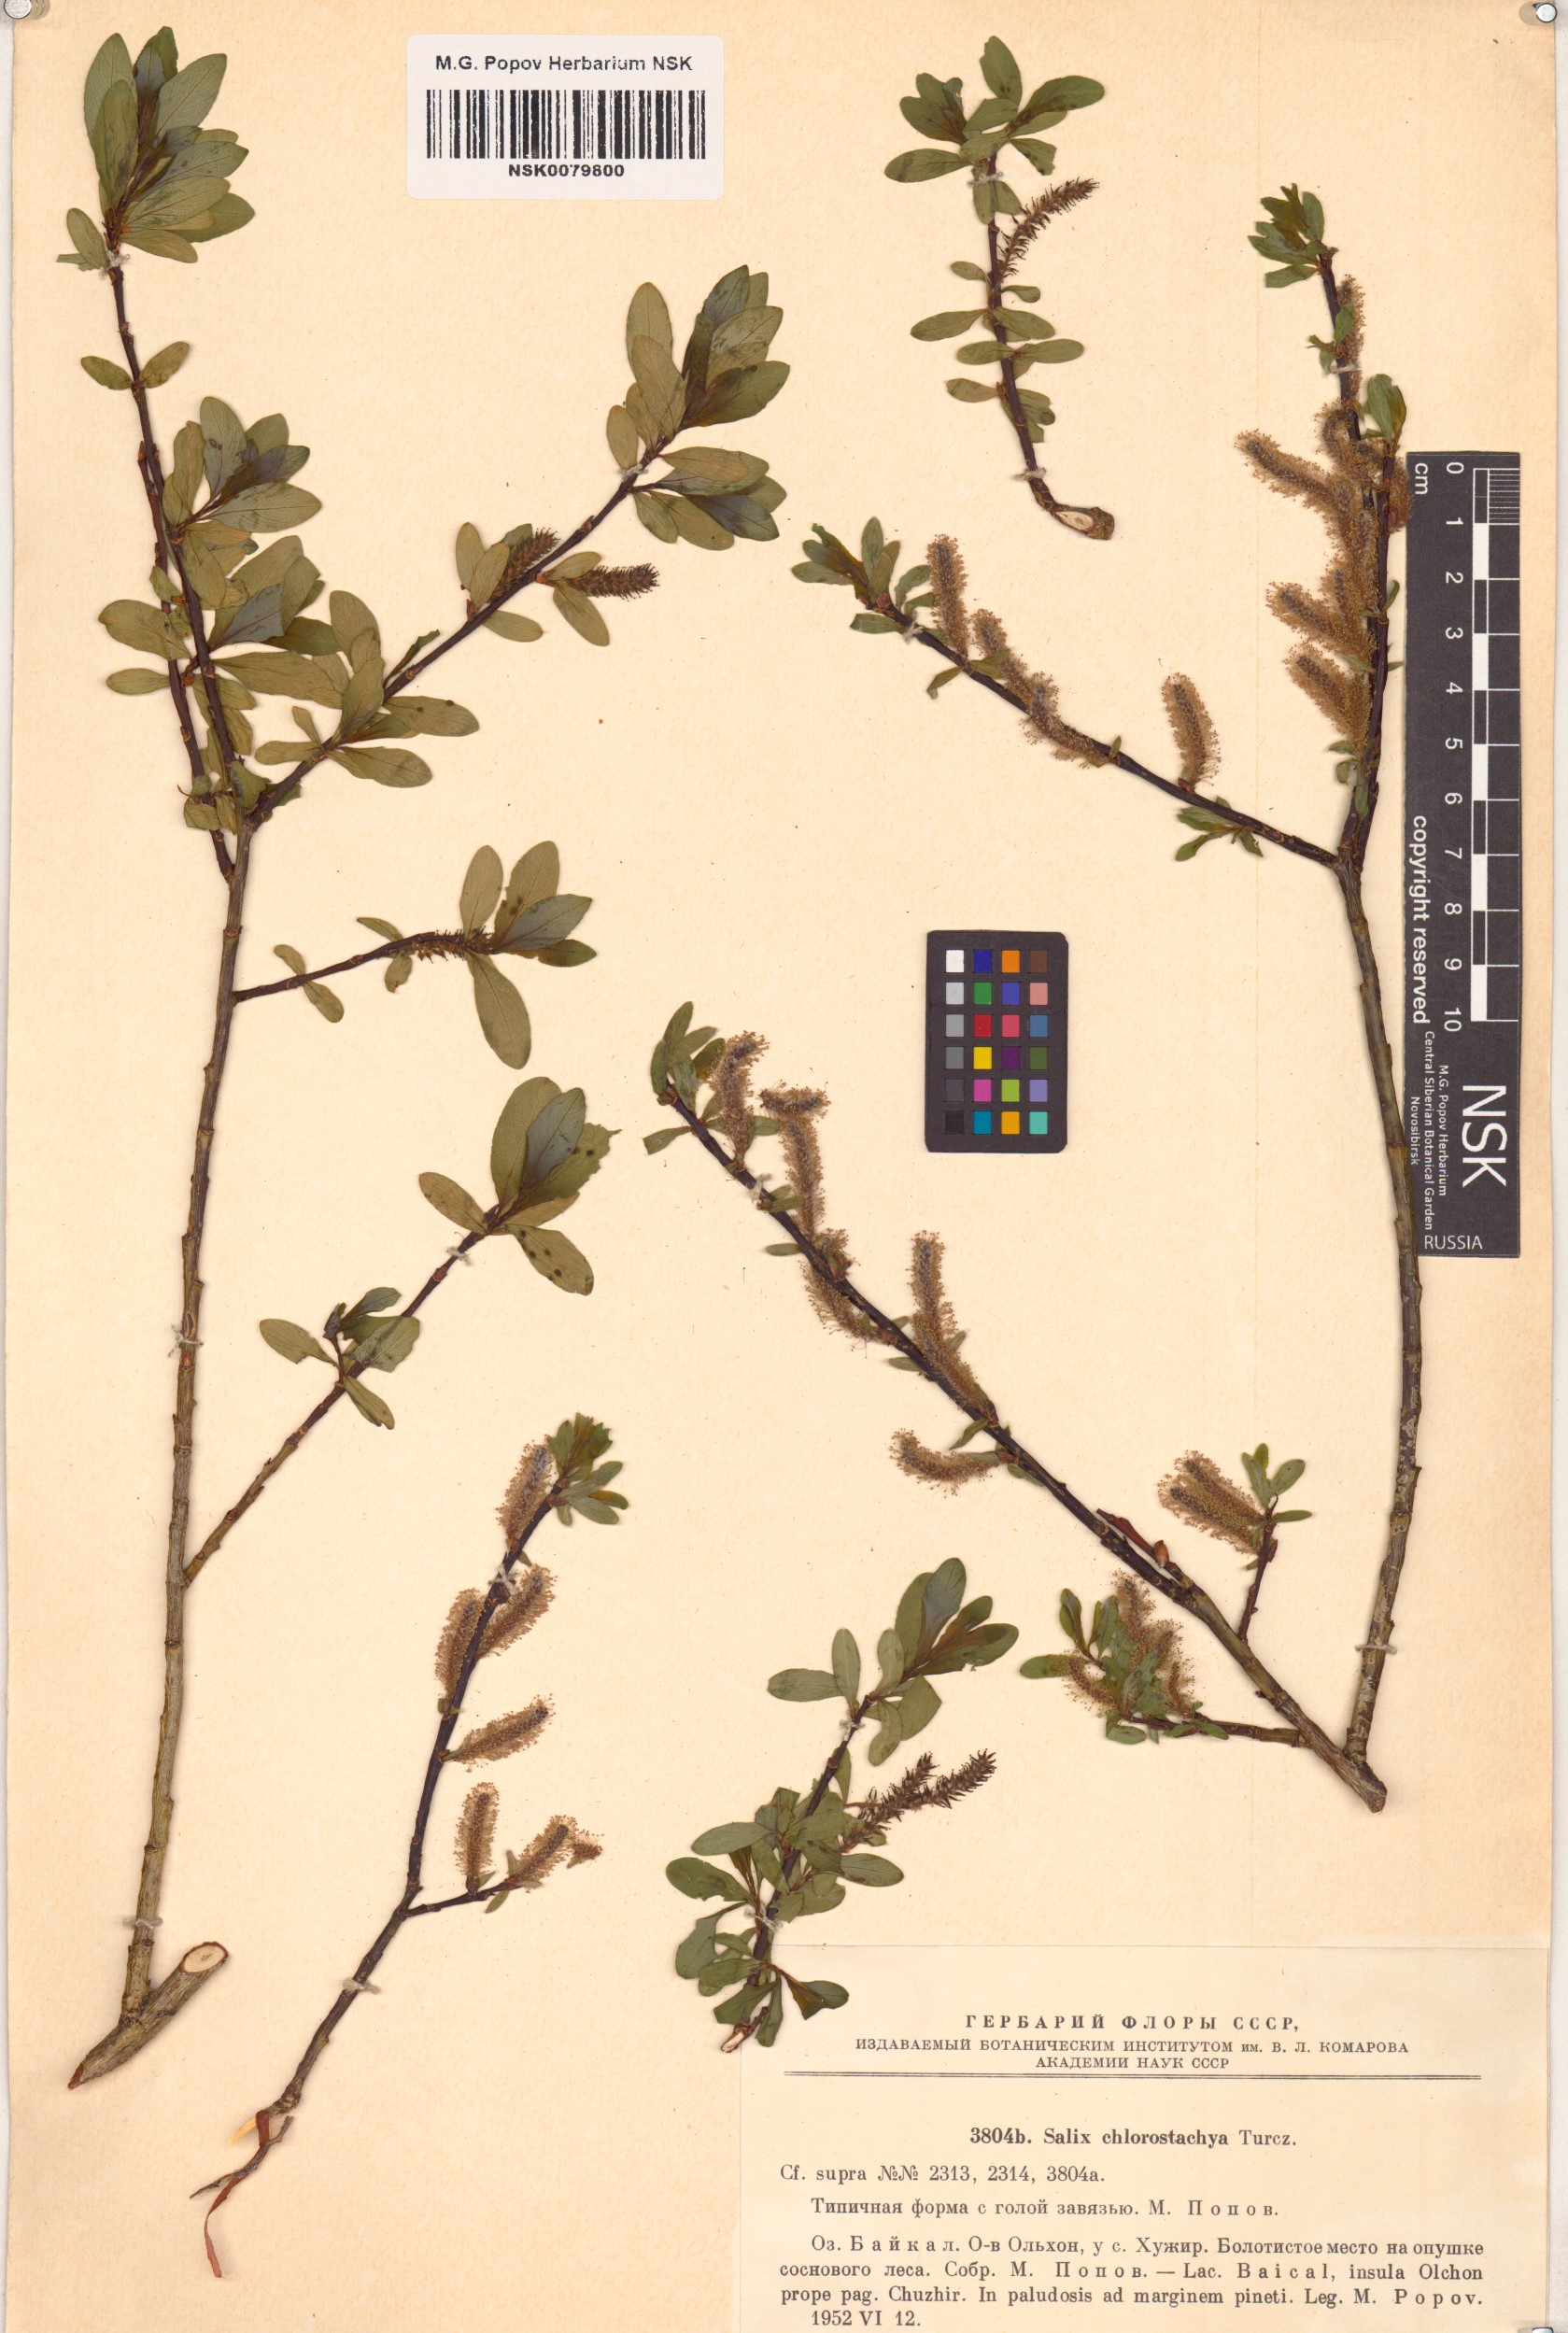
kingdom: Plantae
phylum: Tracheophyta
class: Magnoliopsida
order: Malpighiales
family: Salicaceae
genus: Salix
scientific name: Salix rhamnifolia
